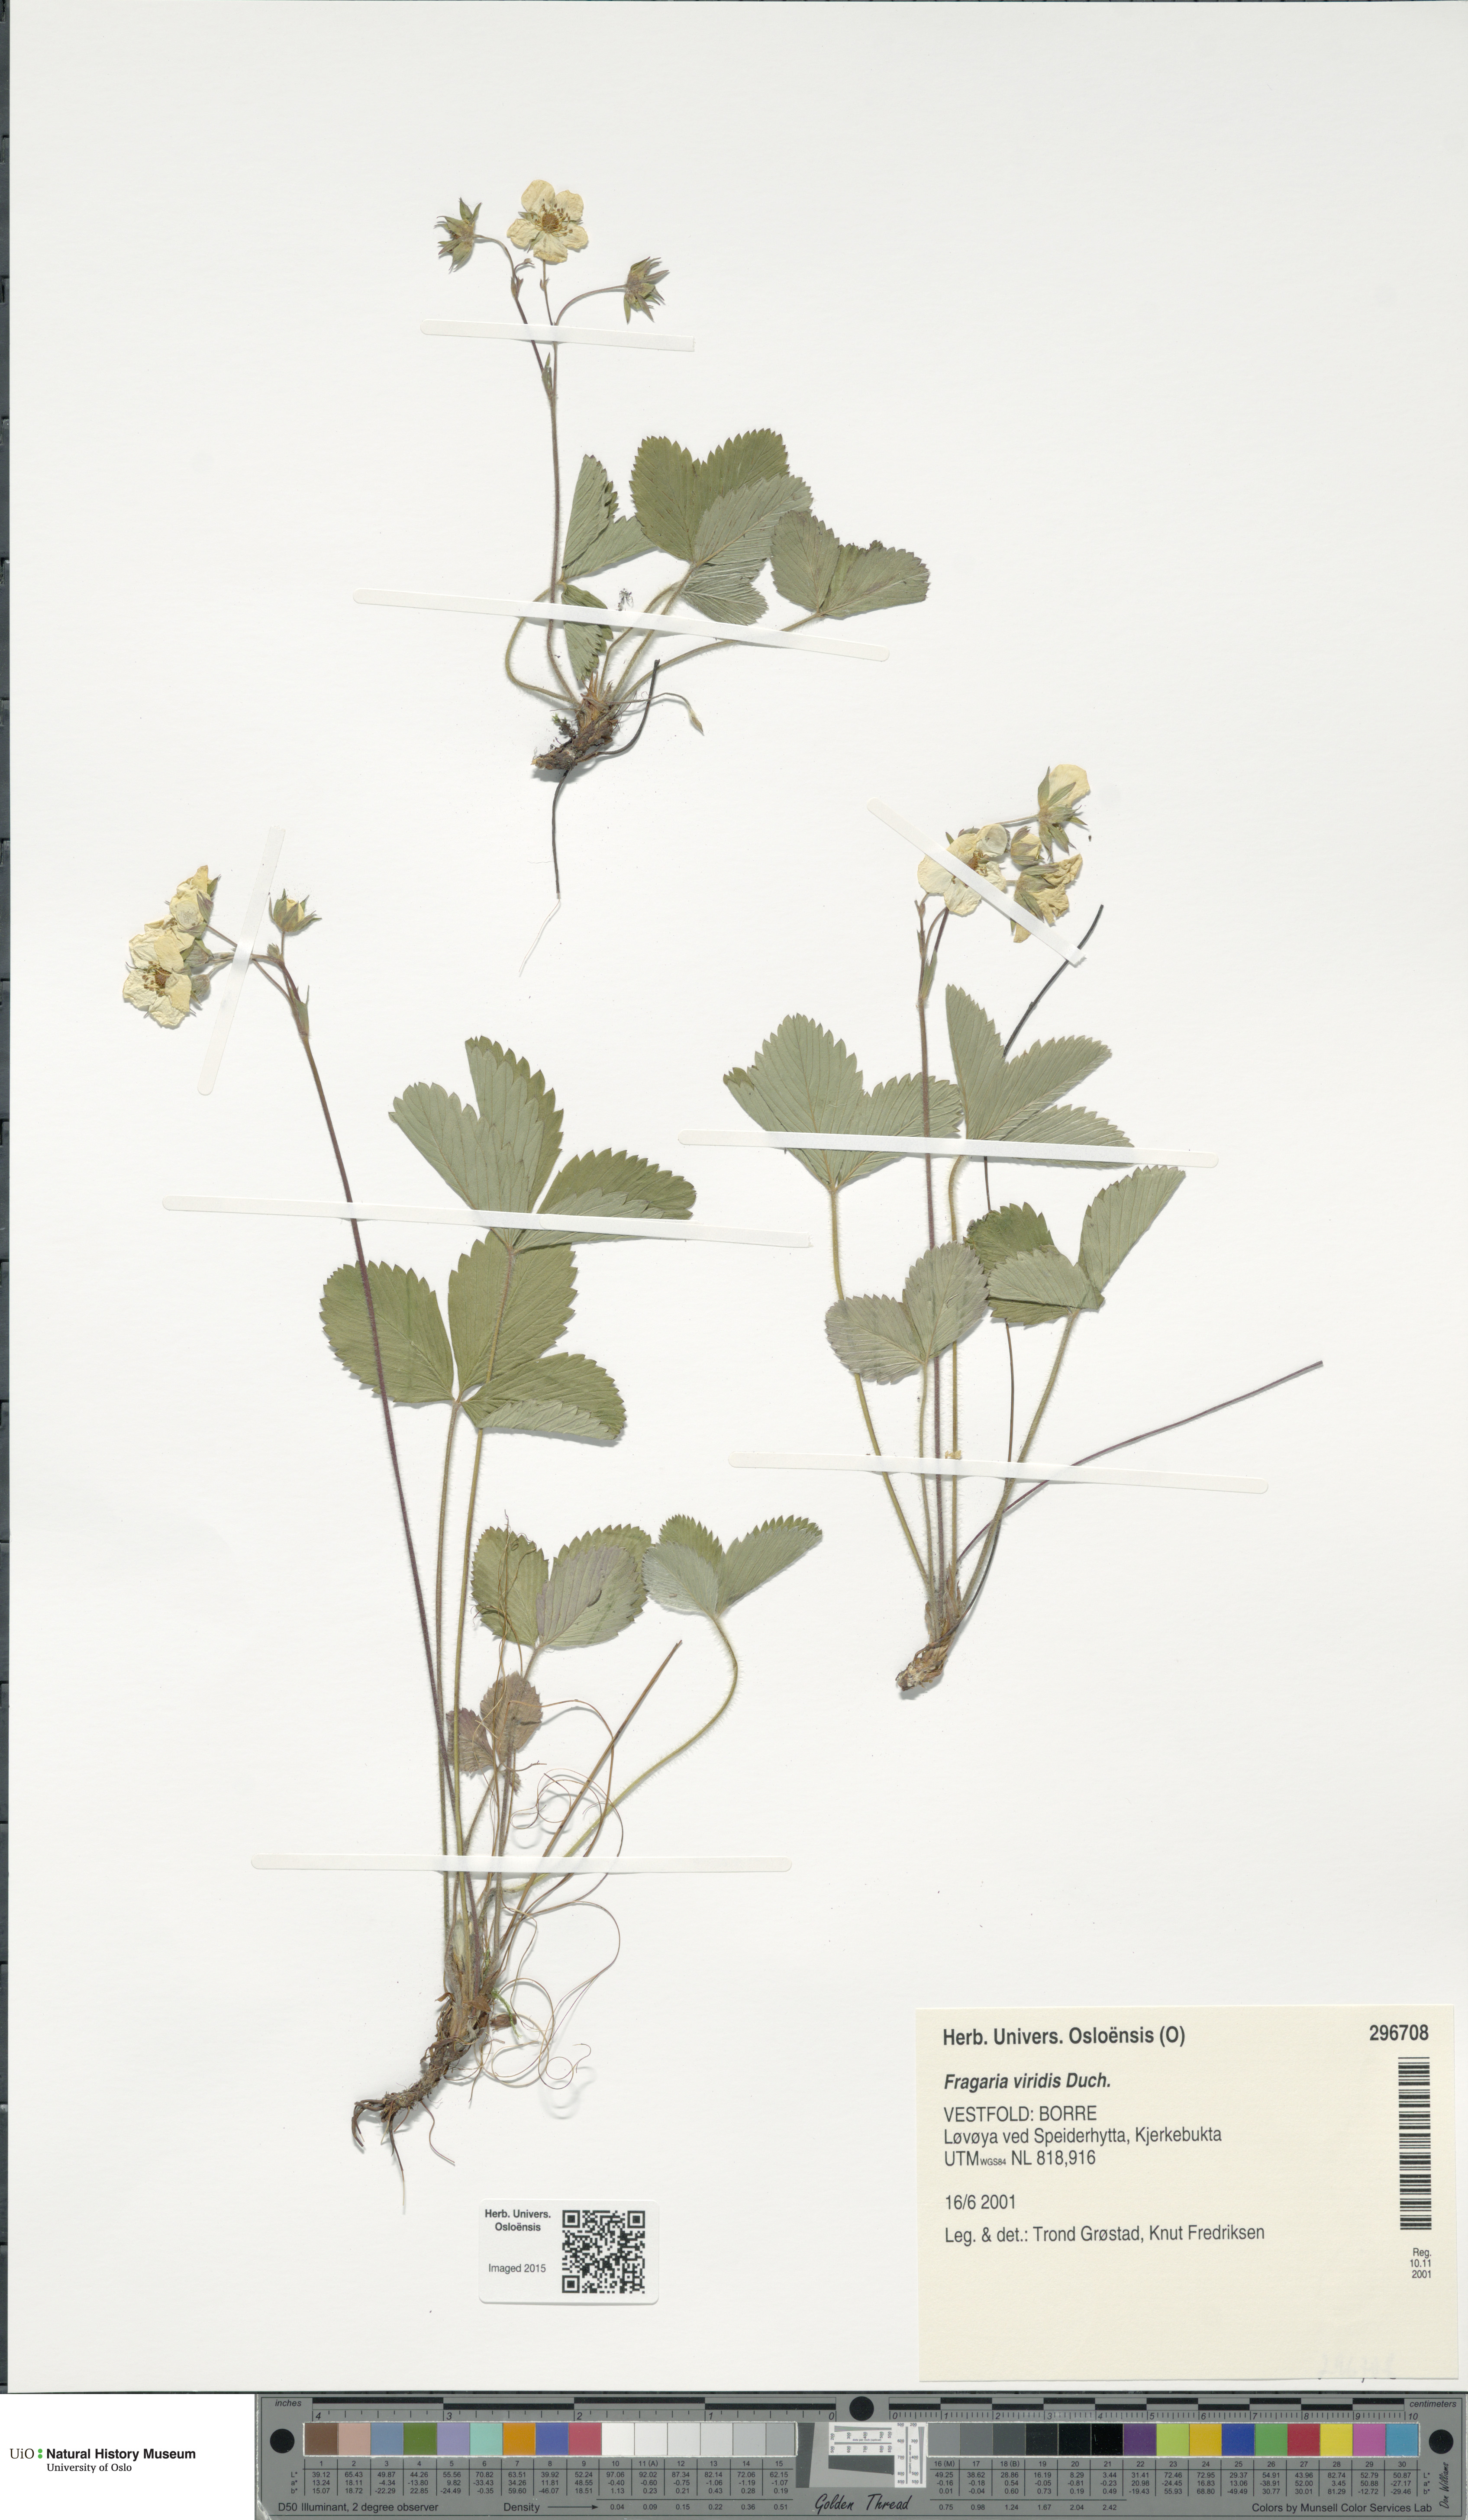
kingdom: Plantae
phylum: Tracheophyta
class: Magnoliopsida
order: Rosales
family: Rosaceae
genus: Fragaria
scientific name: Fragaria viridis
